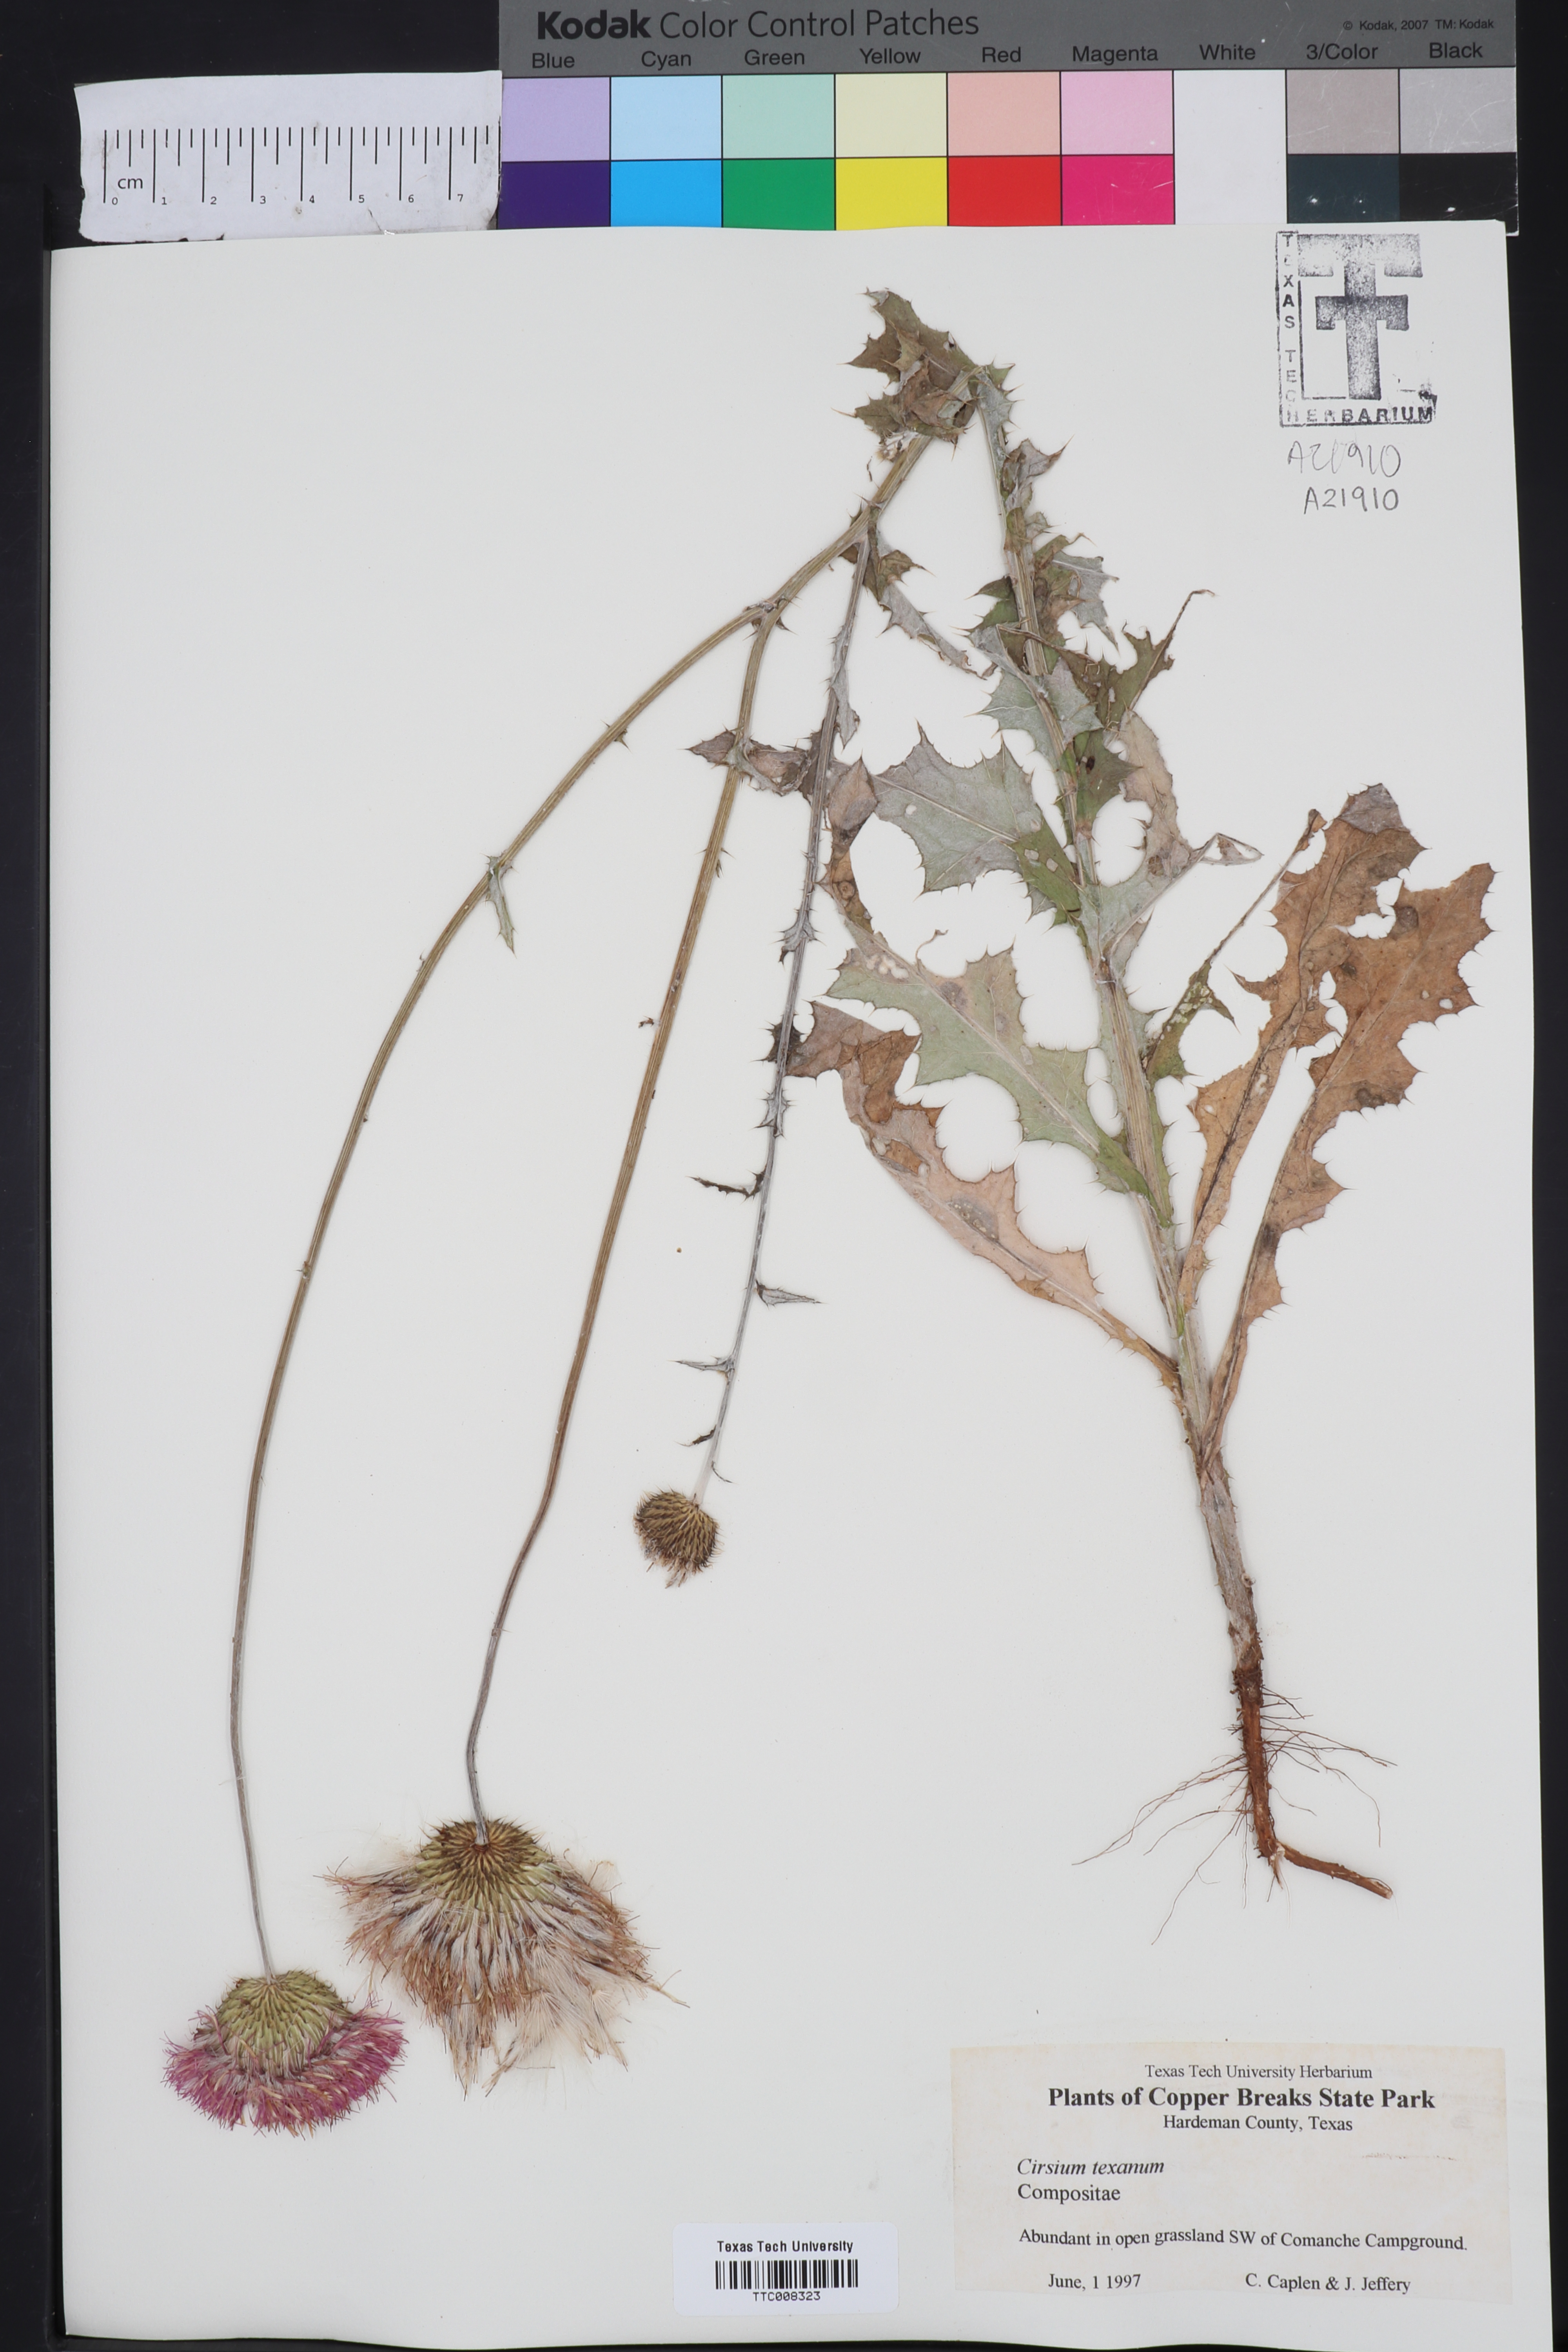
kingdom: Plantae
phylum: Tracheophyta
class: Magnoliopsida
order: Asterales
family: Asteraceae
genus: Cirsium
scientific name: Cirsium texanum
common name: Texas purple thistle
